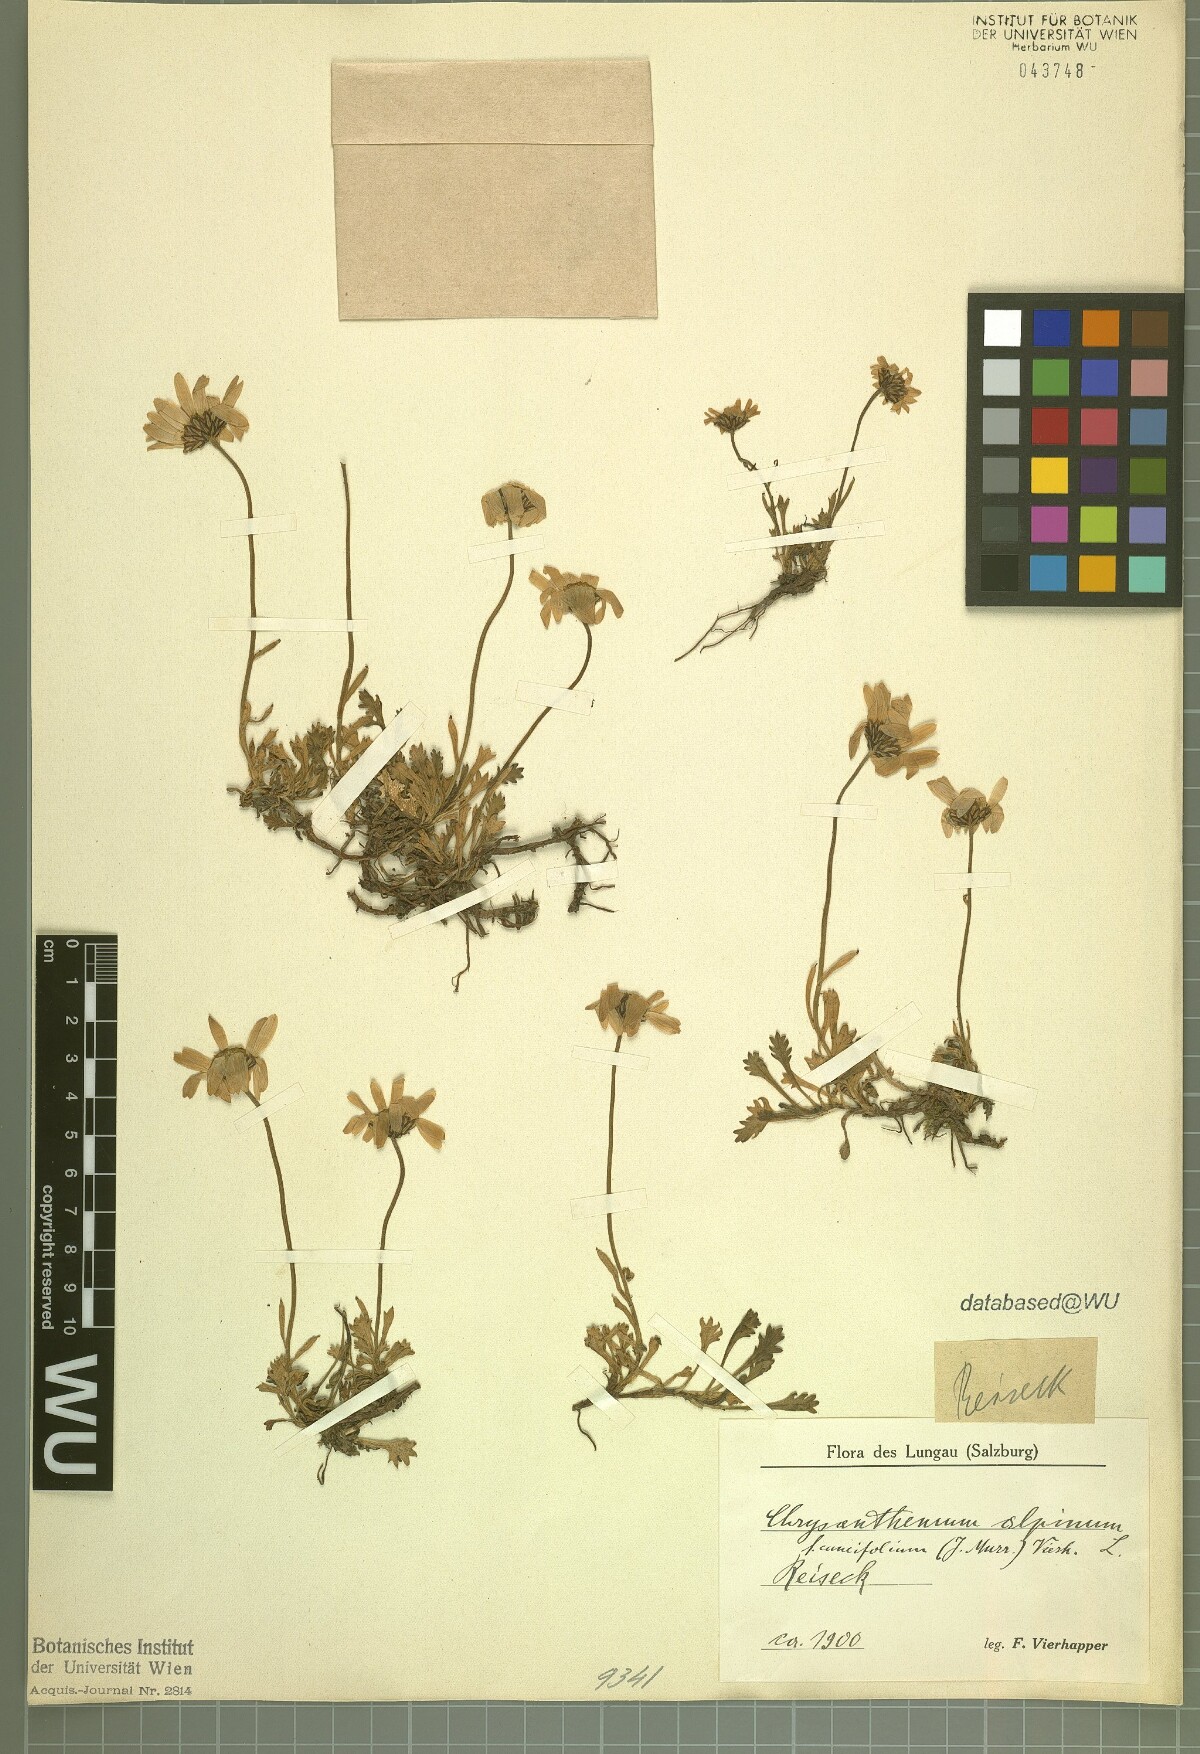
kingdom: Plantae
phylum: Tracheophyta
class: Magnoliopsida
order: Asterales
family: Asteraceae
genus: Leucanthemopsis
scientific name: Leucanthemopsis alpina
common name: Alpine moon daisy
